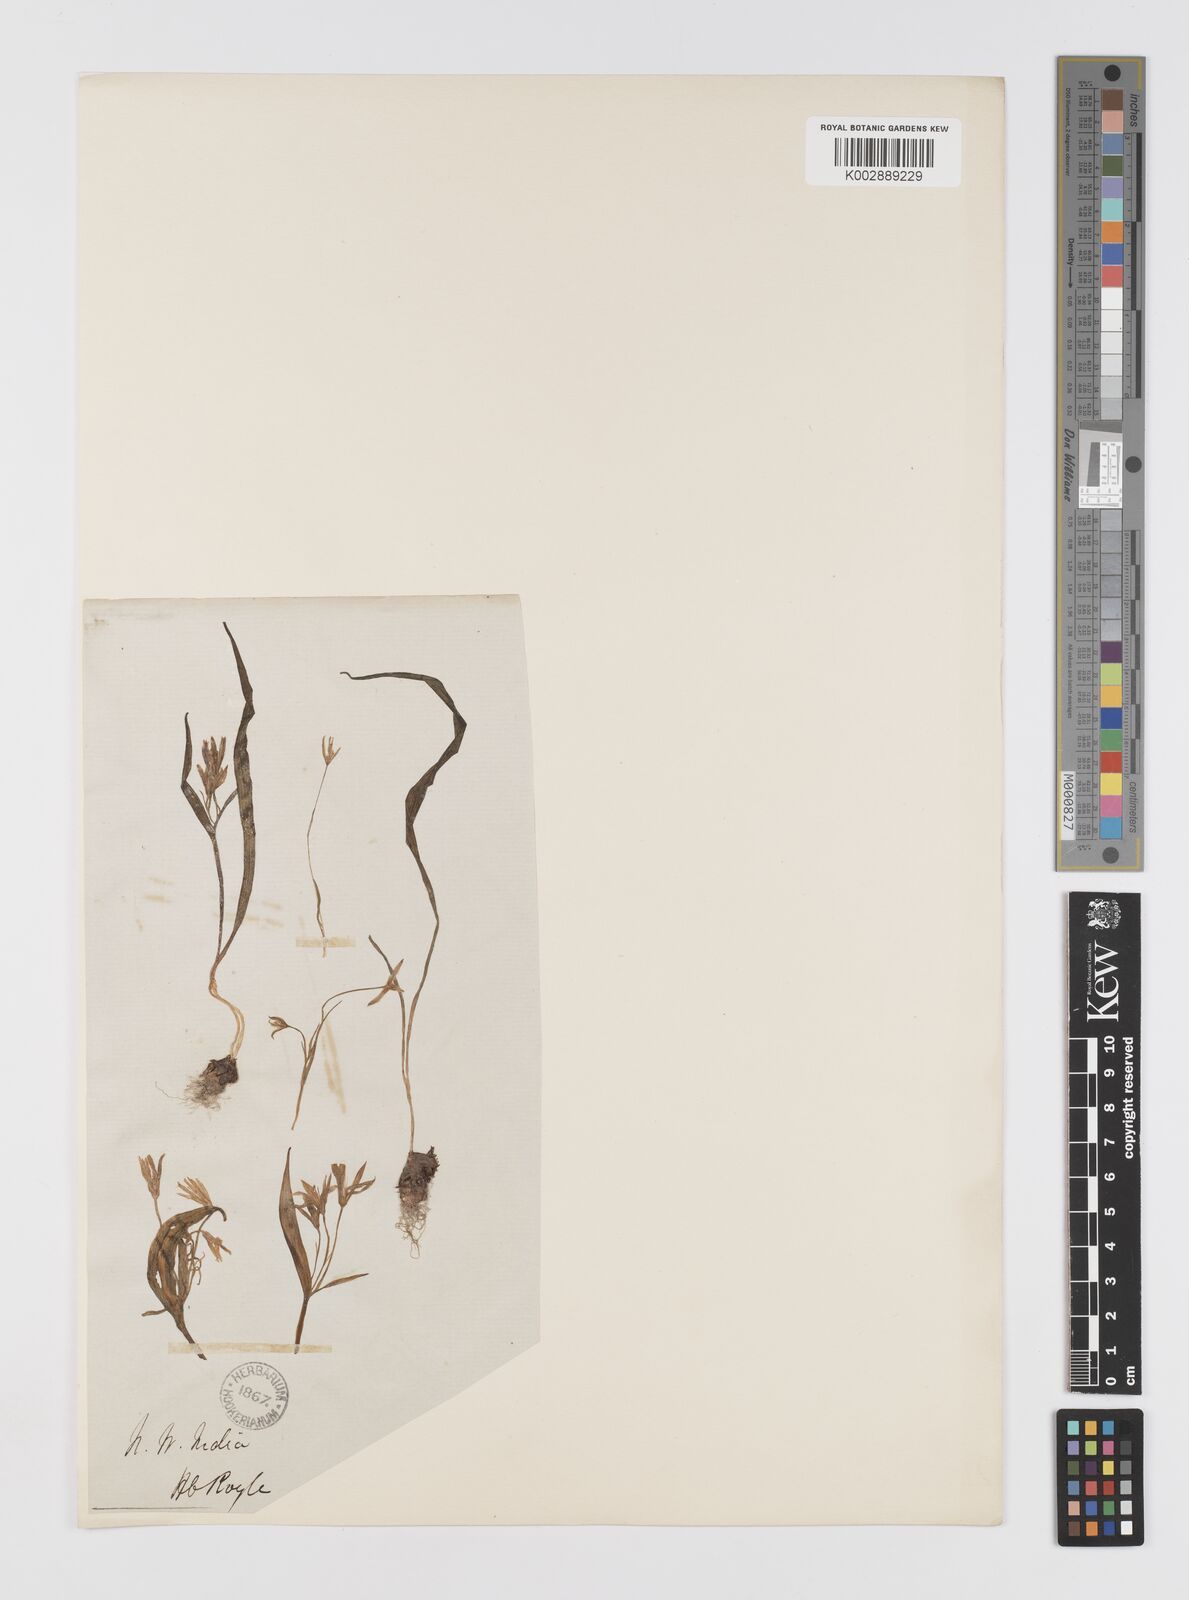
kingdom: Plantae
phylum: Tracheophyta
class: Liliopsida
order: Liliales
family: Liliaceae
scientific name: Liliaceae
